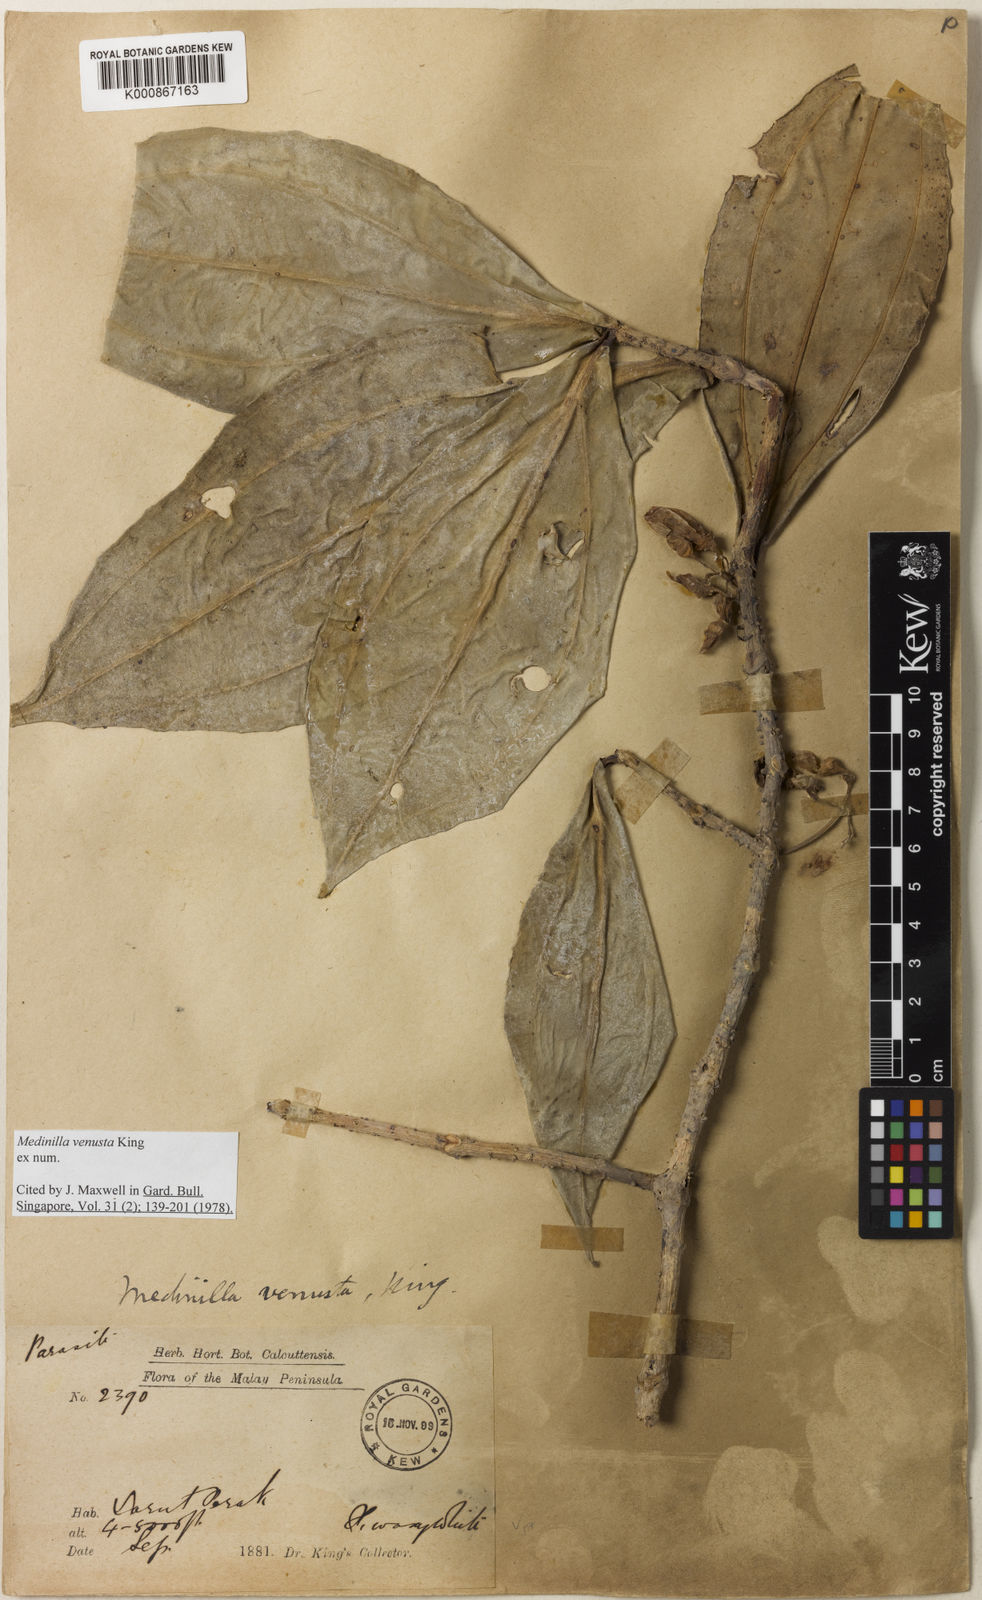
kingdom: Plantae
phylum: Tracheophyta
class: Magnoliopsida
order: Myrtales
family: Melastomataceae
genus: Medinilla
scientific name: Medinilla venusta
